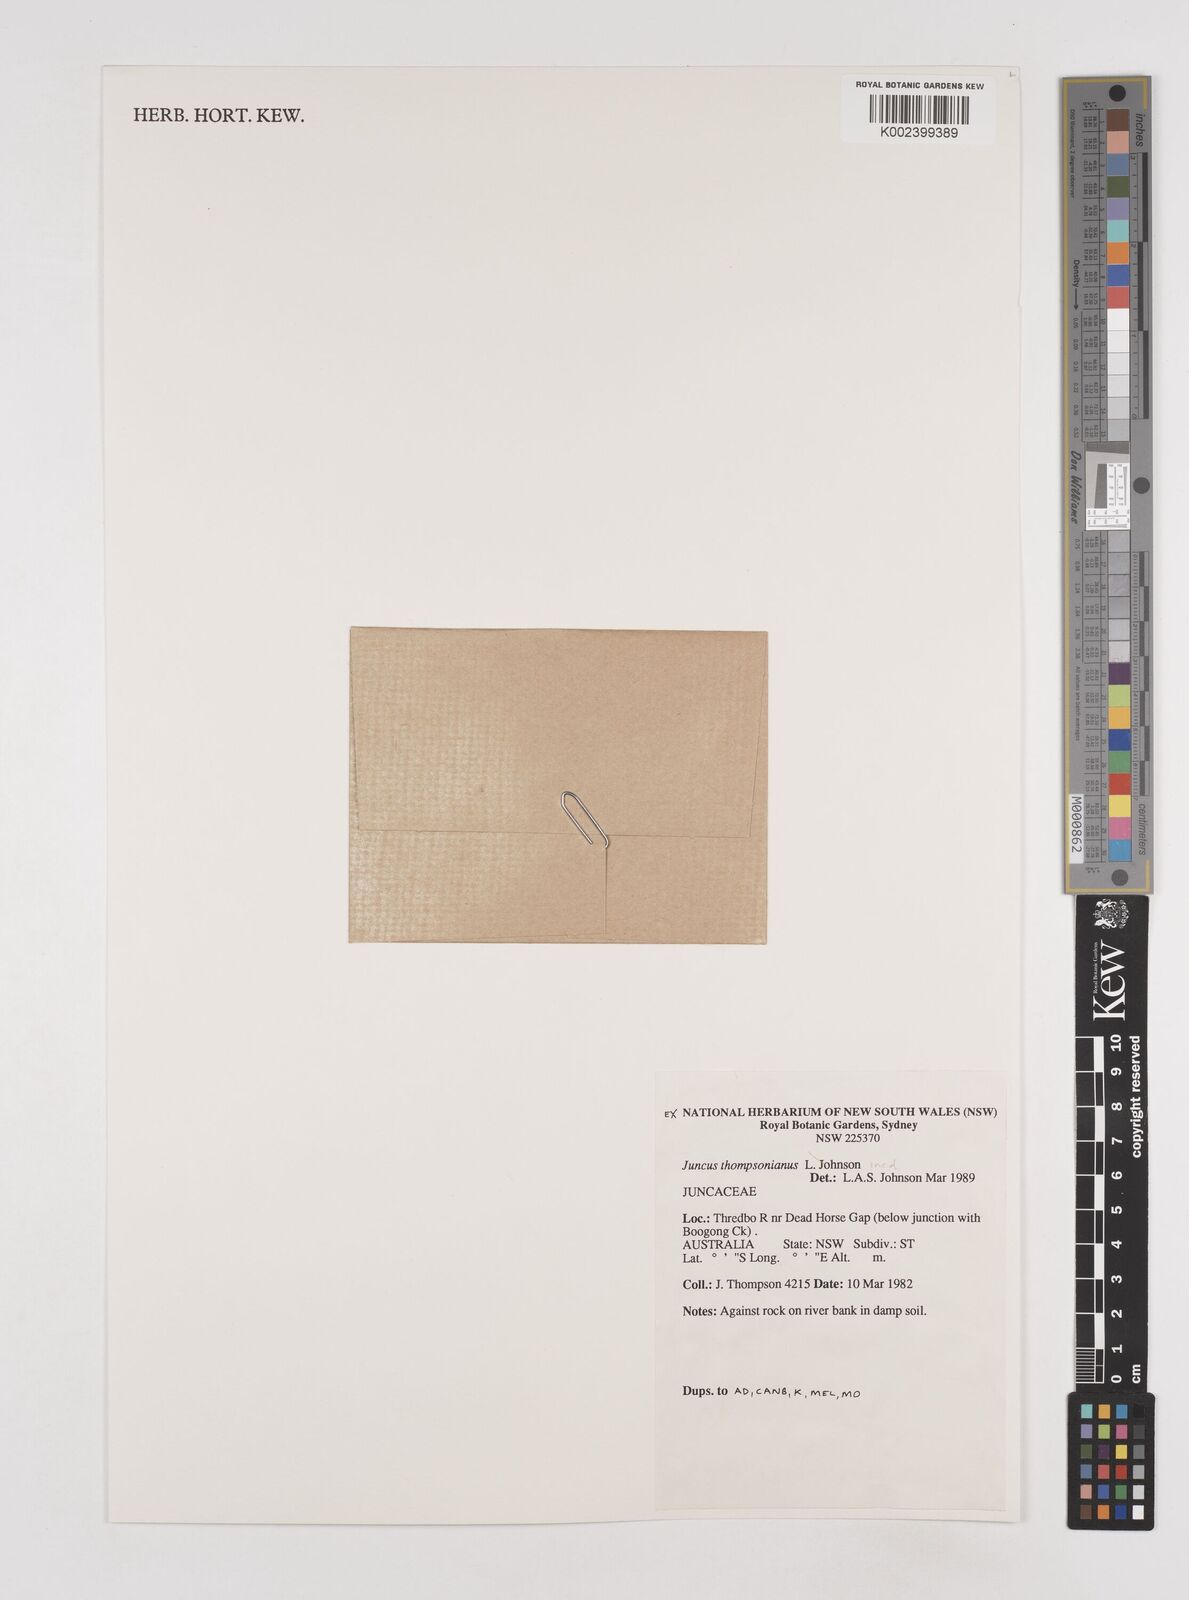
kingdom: Plantae
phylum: Tracheophyta
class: Liliopsida
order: Poales
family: Juncaceae
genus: Juncus
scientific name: Juncus thompsonianus
